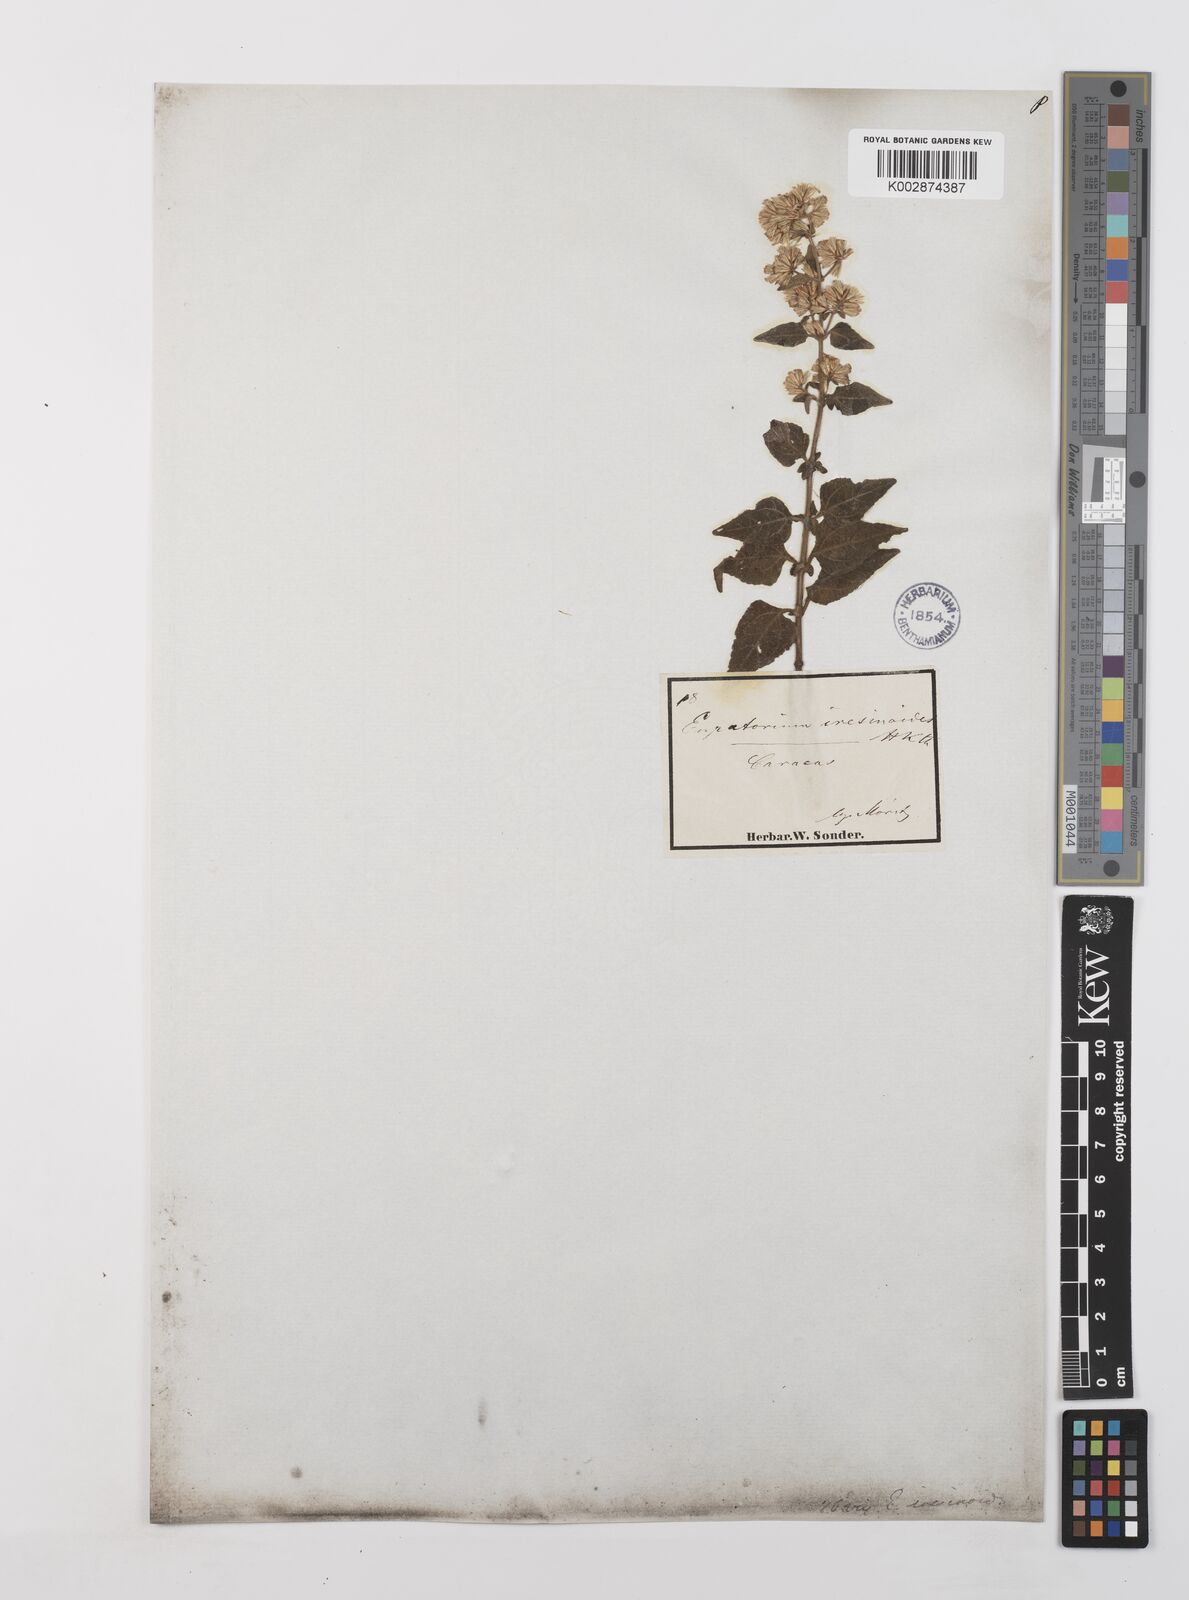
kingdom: Plantae
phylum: Tracheophyta
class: Magnoliopsida
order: Asterales
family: Asteraceae
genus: Condylidium
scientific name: Condylidium iresinoides
